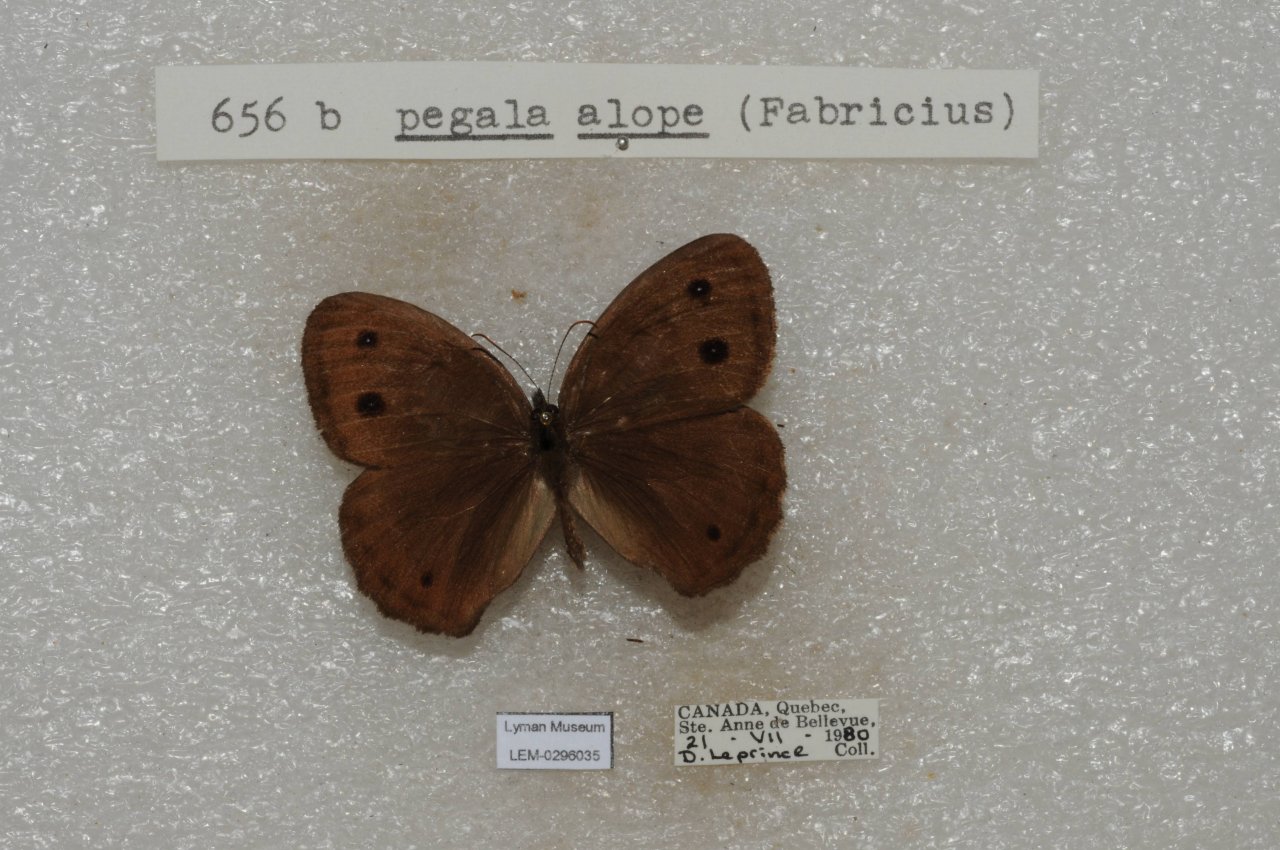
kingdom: Animalia
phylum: Arthropoda
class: Insecta
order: Lepidoptera
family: Nymphalidae
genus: Cercyonis
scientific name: Cercyonis pegala
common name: Common Wood-Nymph
